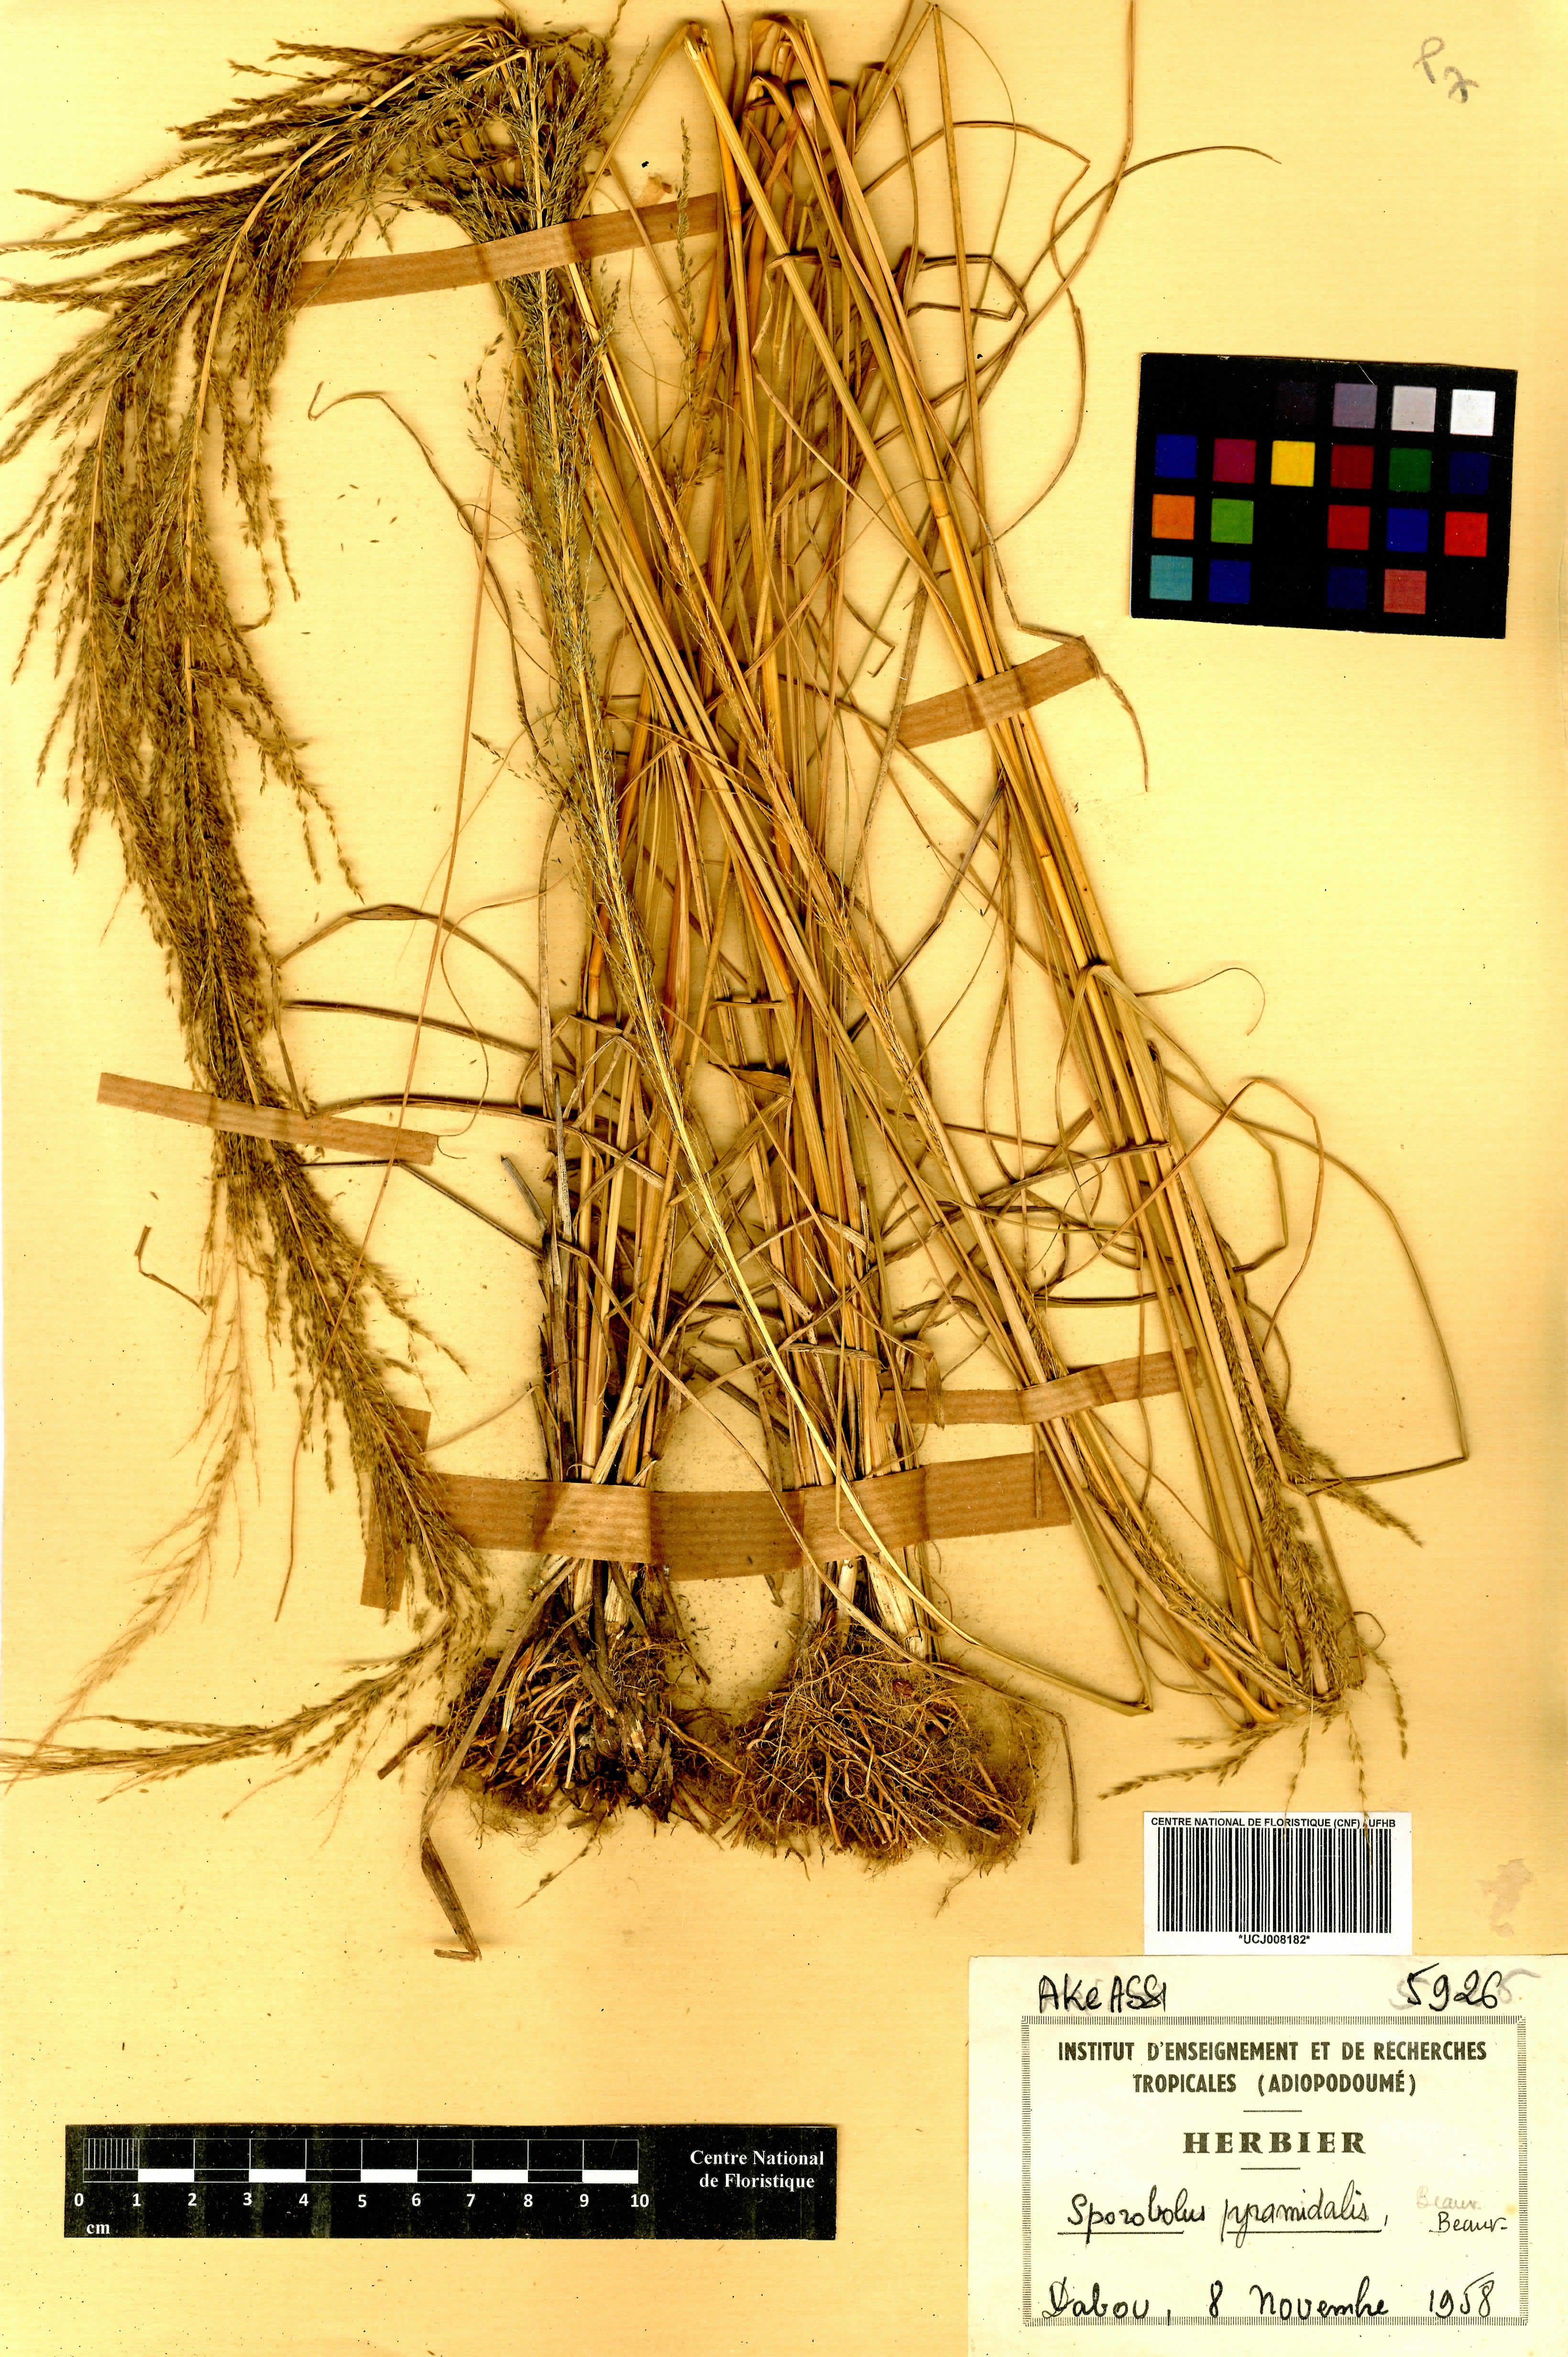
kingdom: Plantae
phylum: Tracheophyta
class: Liliopsida
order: Poales
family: Poaceae
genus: Sporobolus
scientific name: Sporobolus pyramidalis
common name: West indian dropseed
